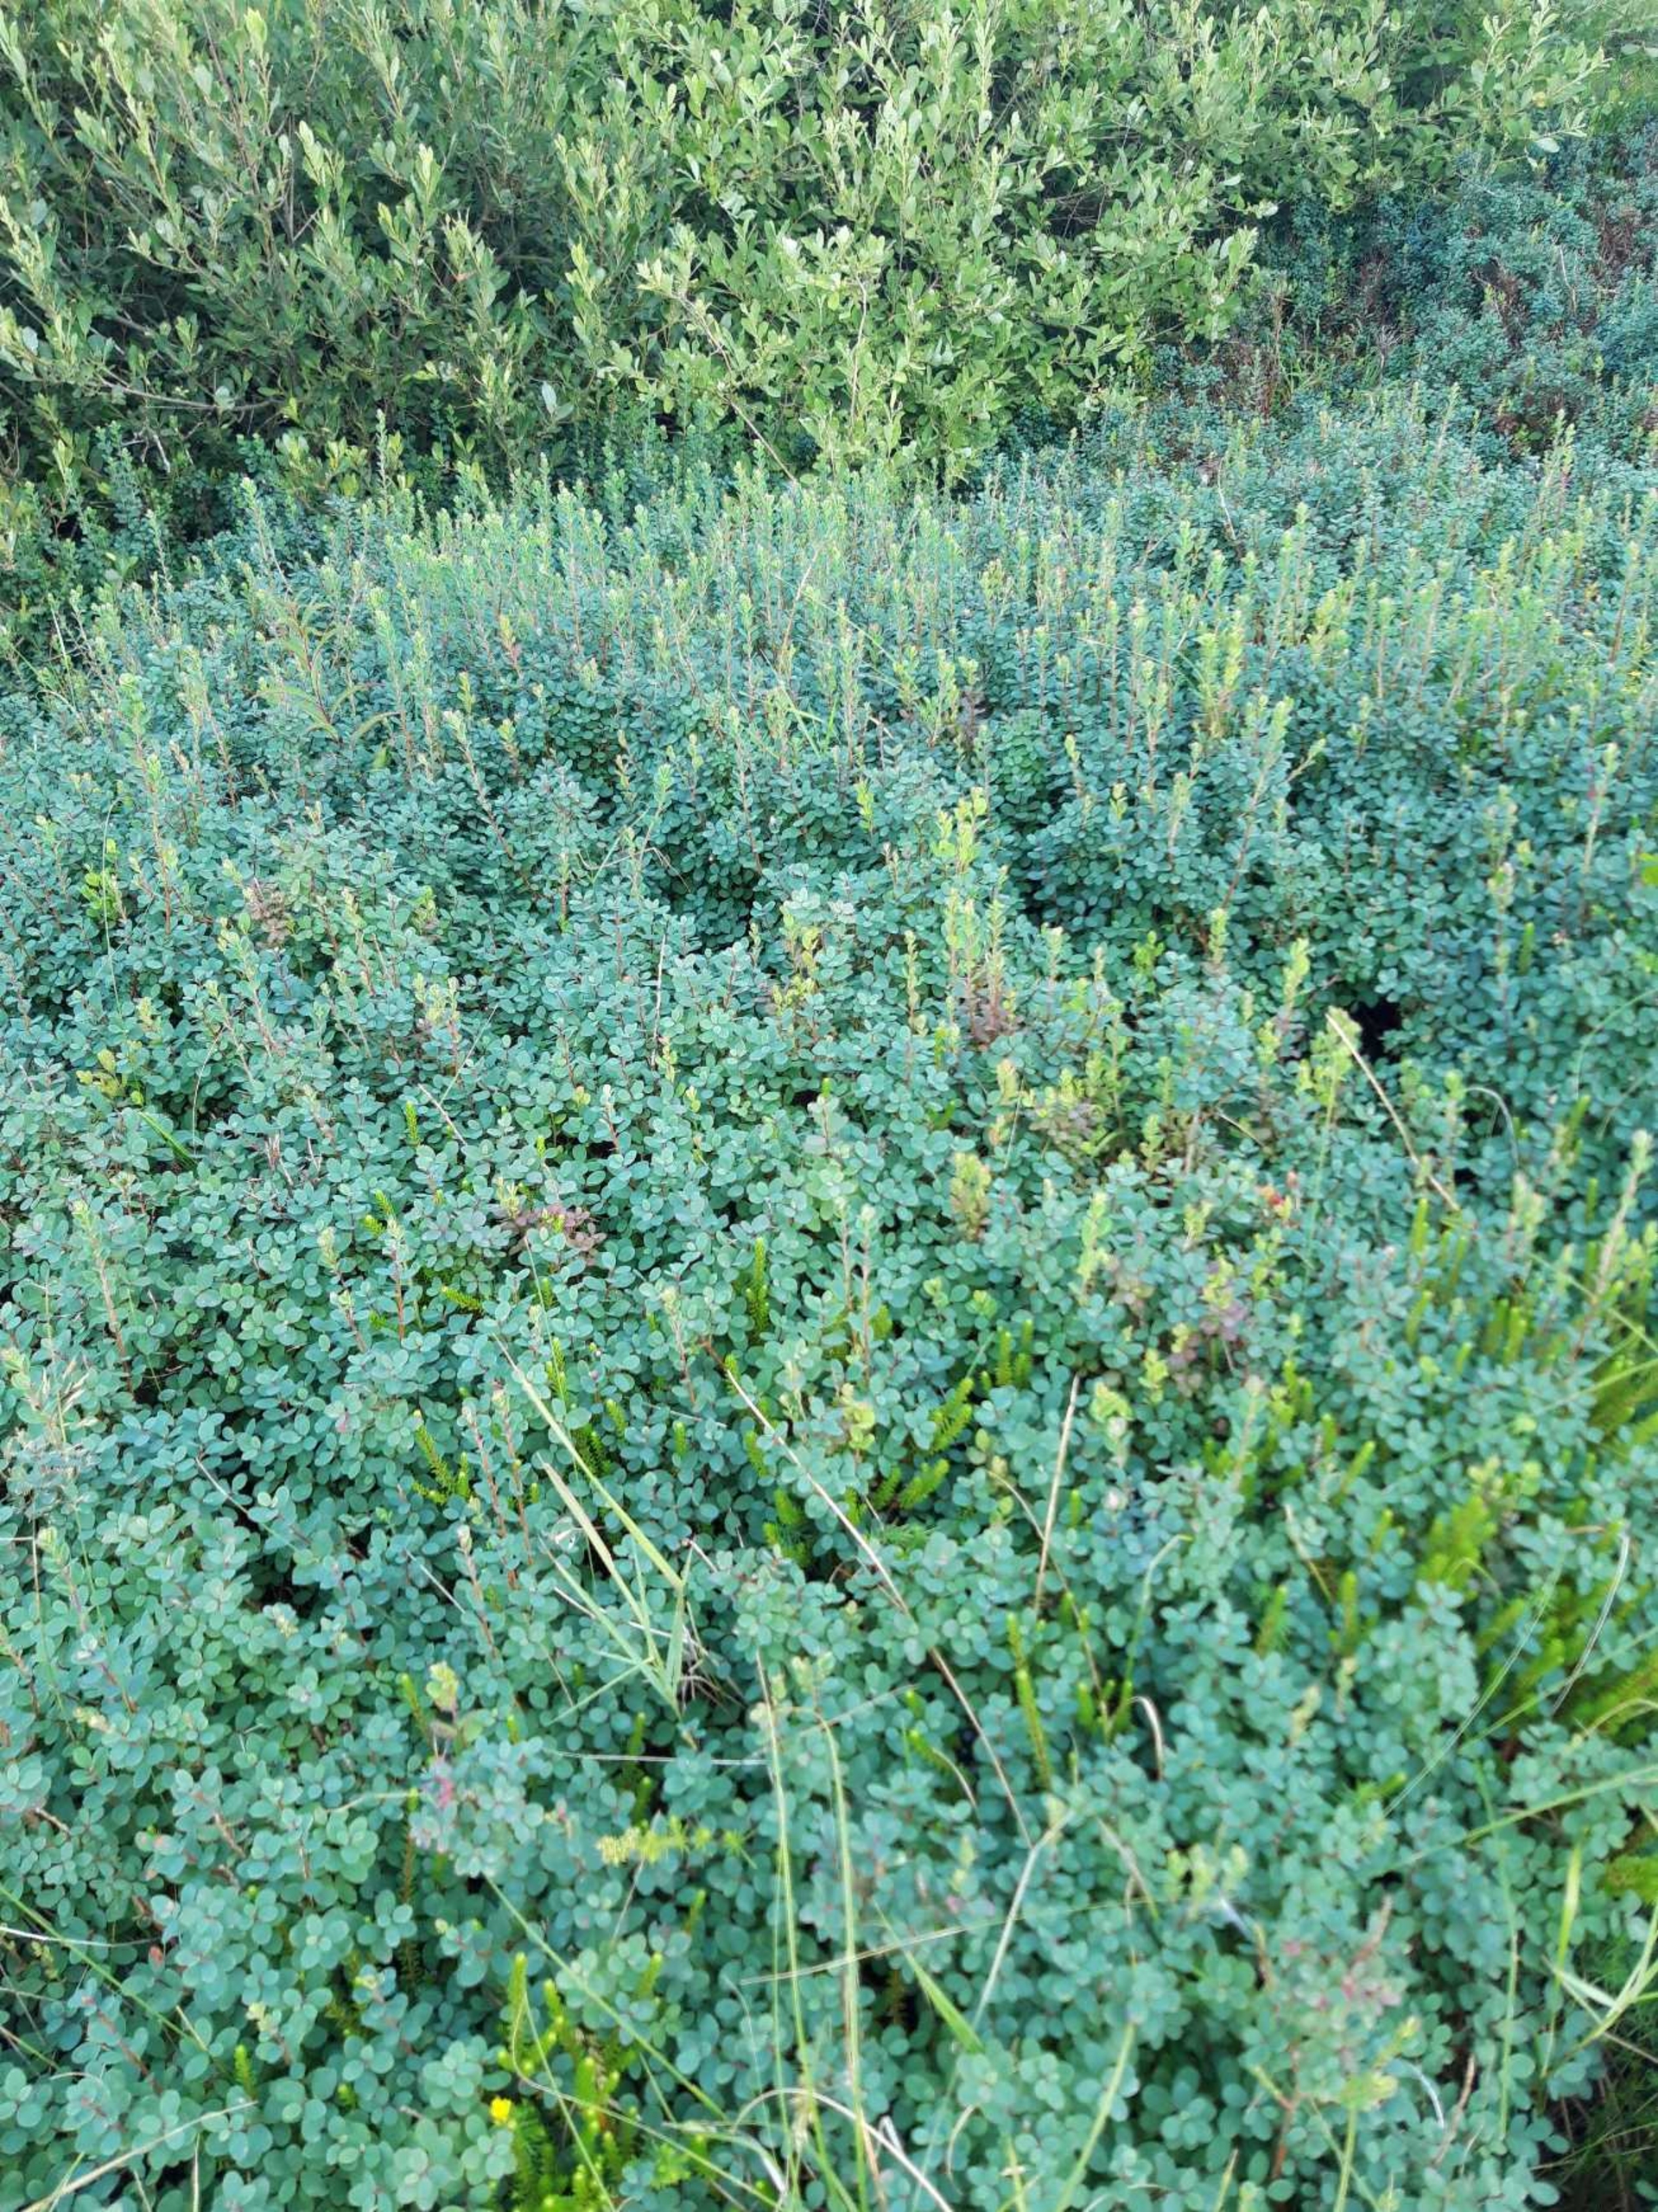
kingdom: Plantae
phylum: Tracheophyta
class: Magnoliopsida
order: Ericales
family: Ericaceae
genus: Vaccinium
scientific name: Vaccinium uliginosum
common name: Mose-bølle
